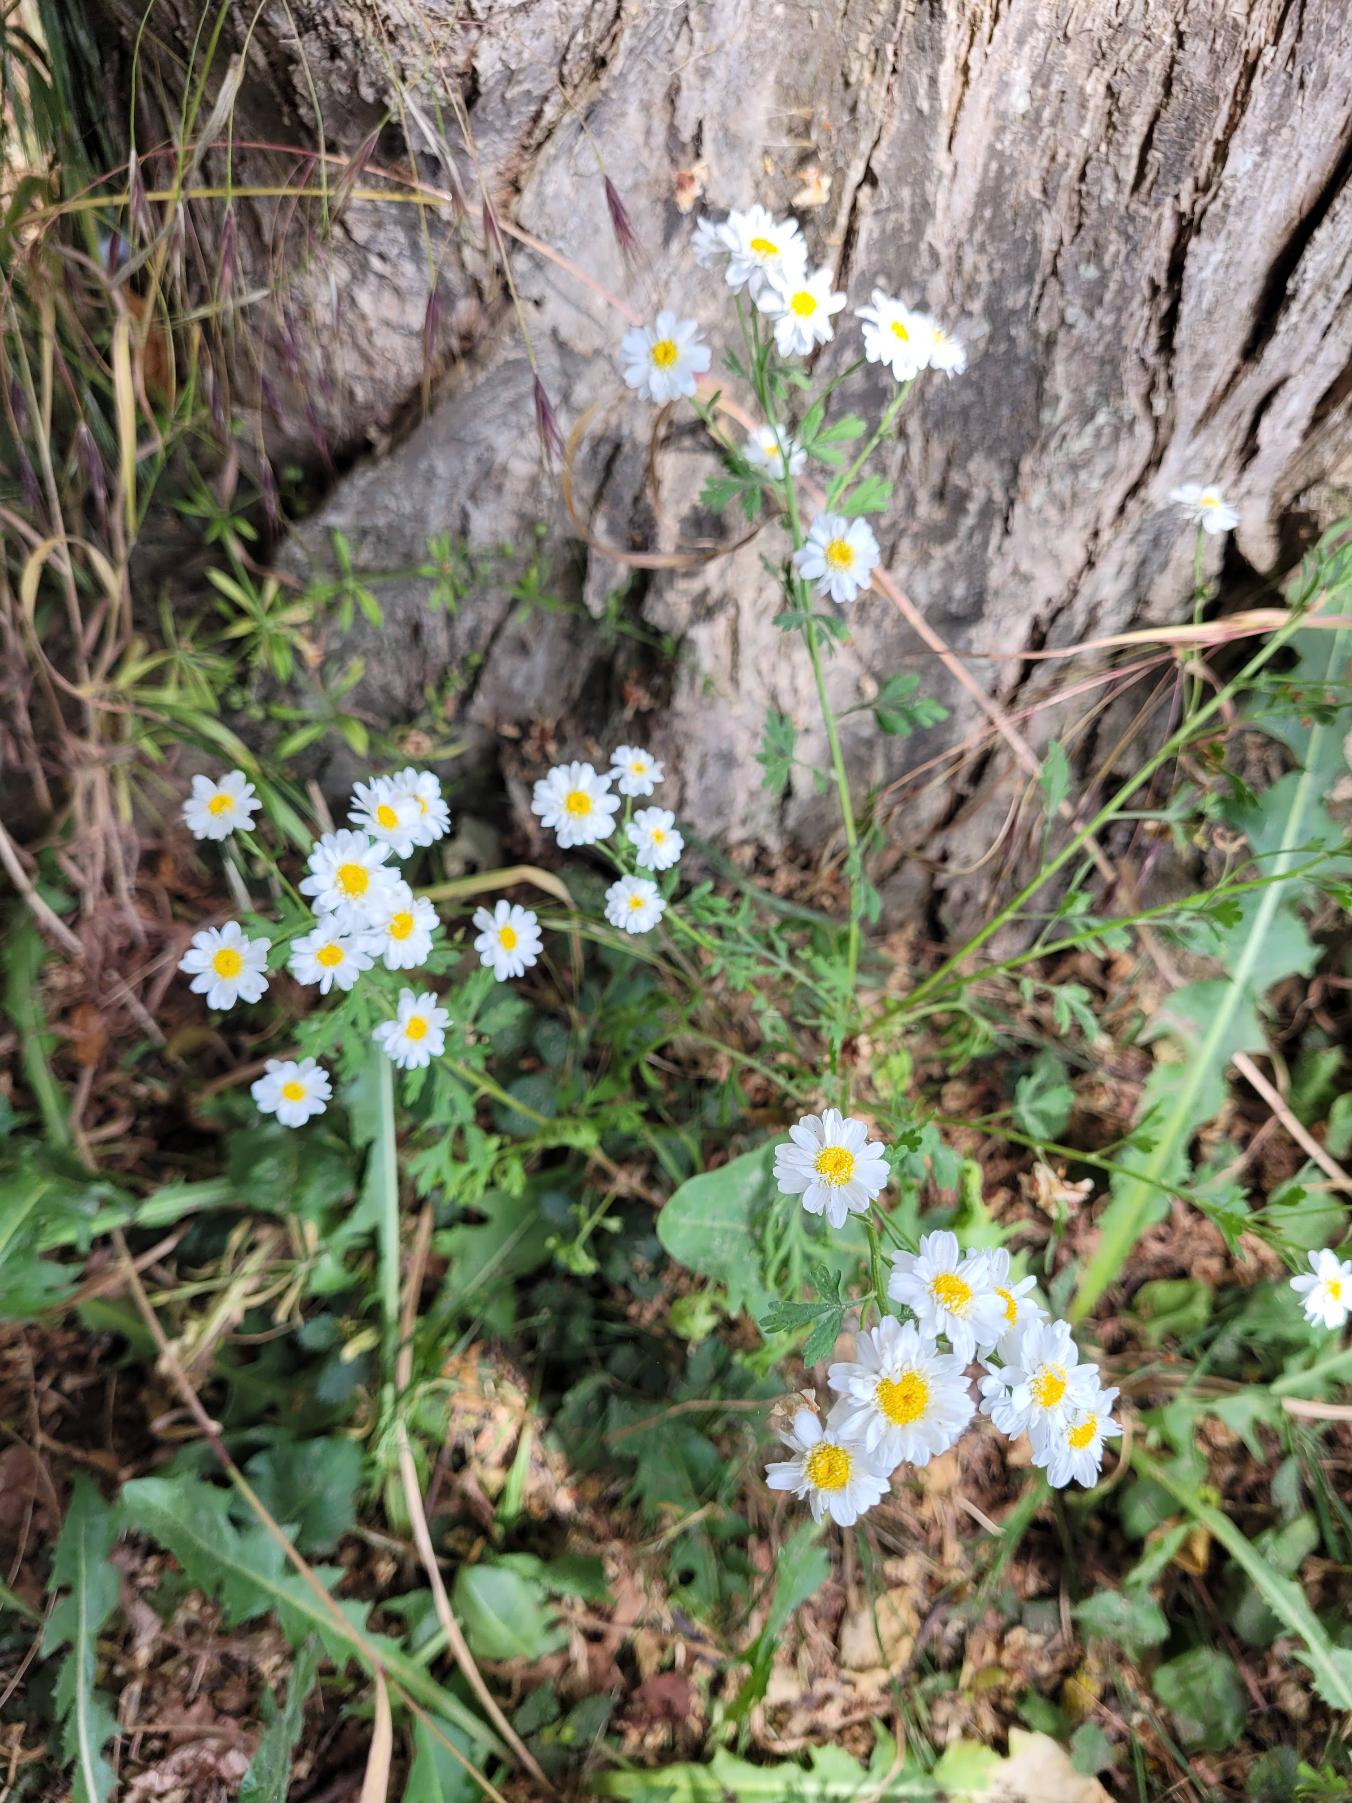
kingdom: Plantae
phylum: Tracheophyta
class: Magnoliopsida
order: Asterales
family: Asteraceae
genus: Tanacetum
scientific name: Tanacetum parthenium
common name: Matrem
